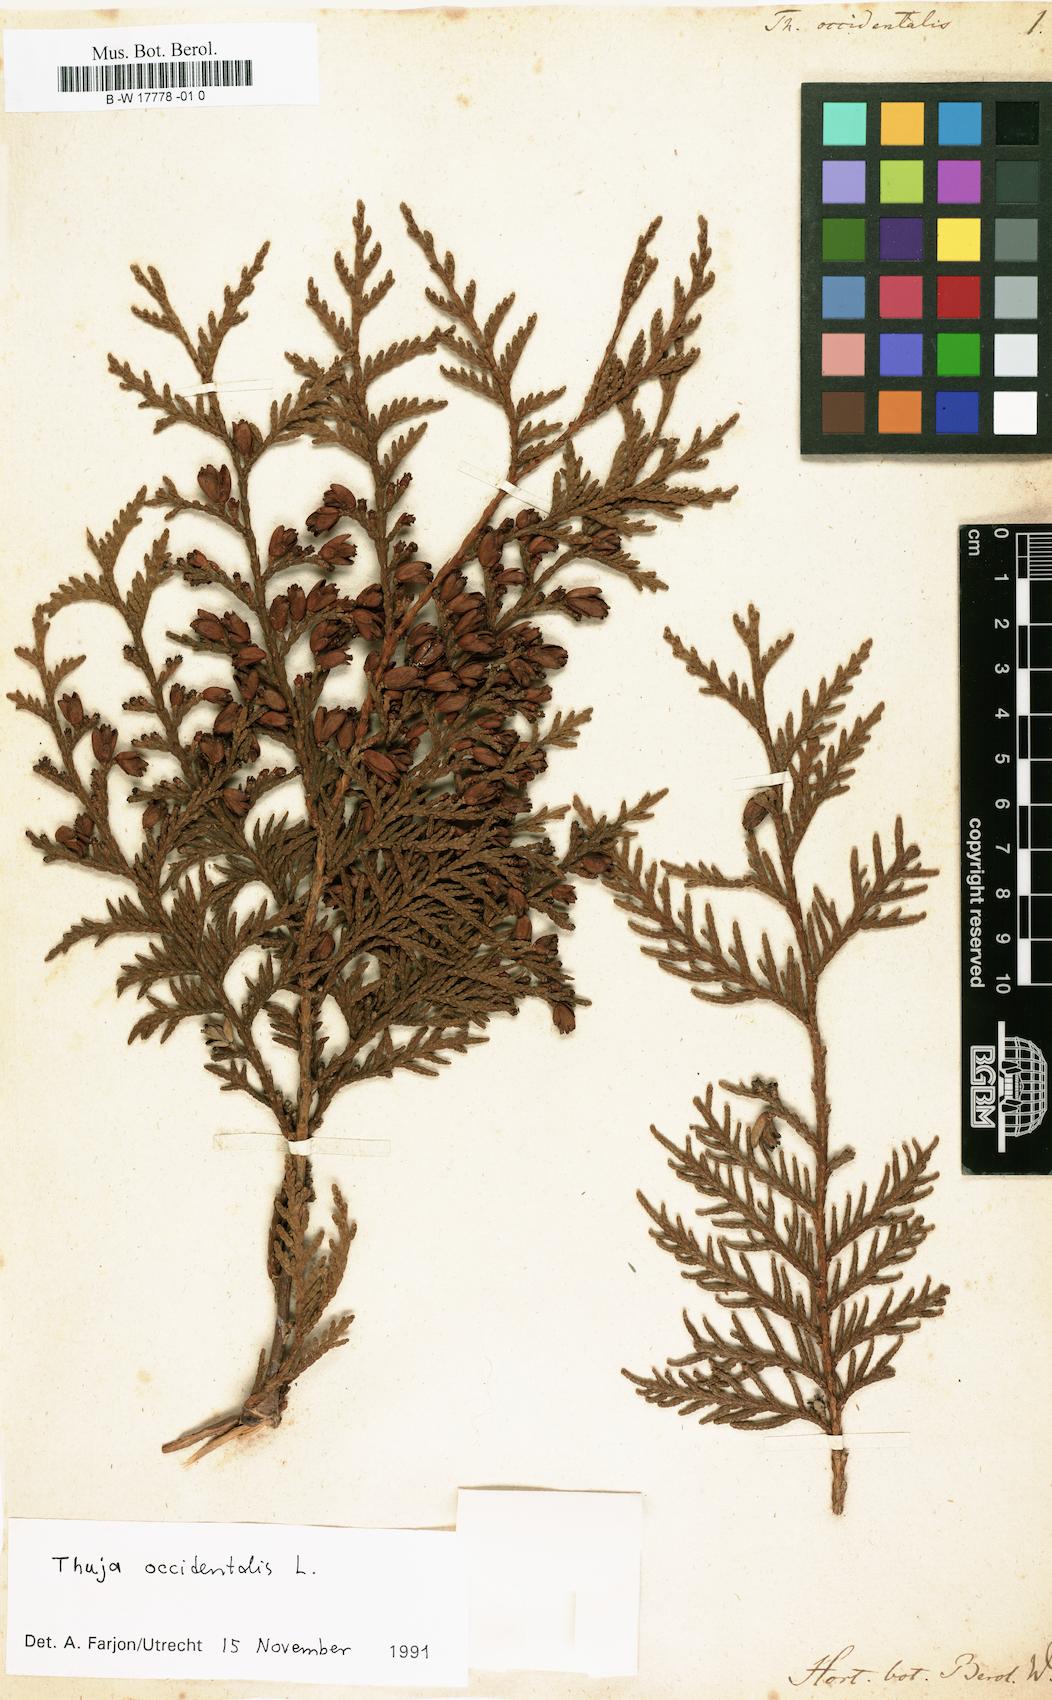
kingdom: Plantae
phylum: Tracheophyta
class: Pinopsida
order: Pinales
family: Cupressaceae
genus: Thuja
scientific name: Thuja occidentalis
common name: Northern white-cedar
